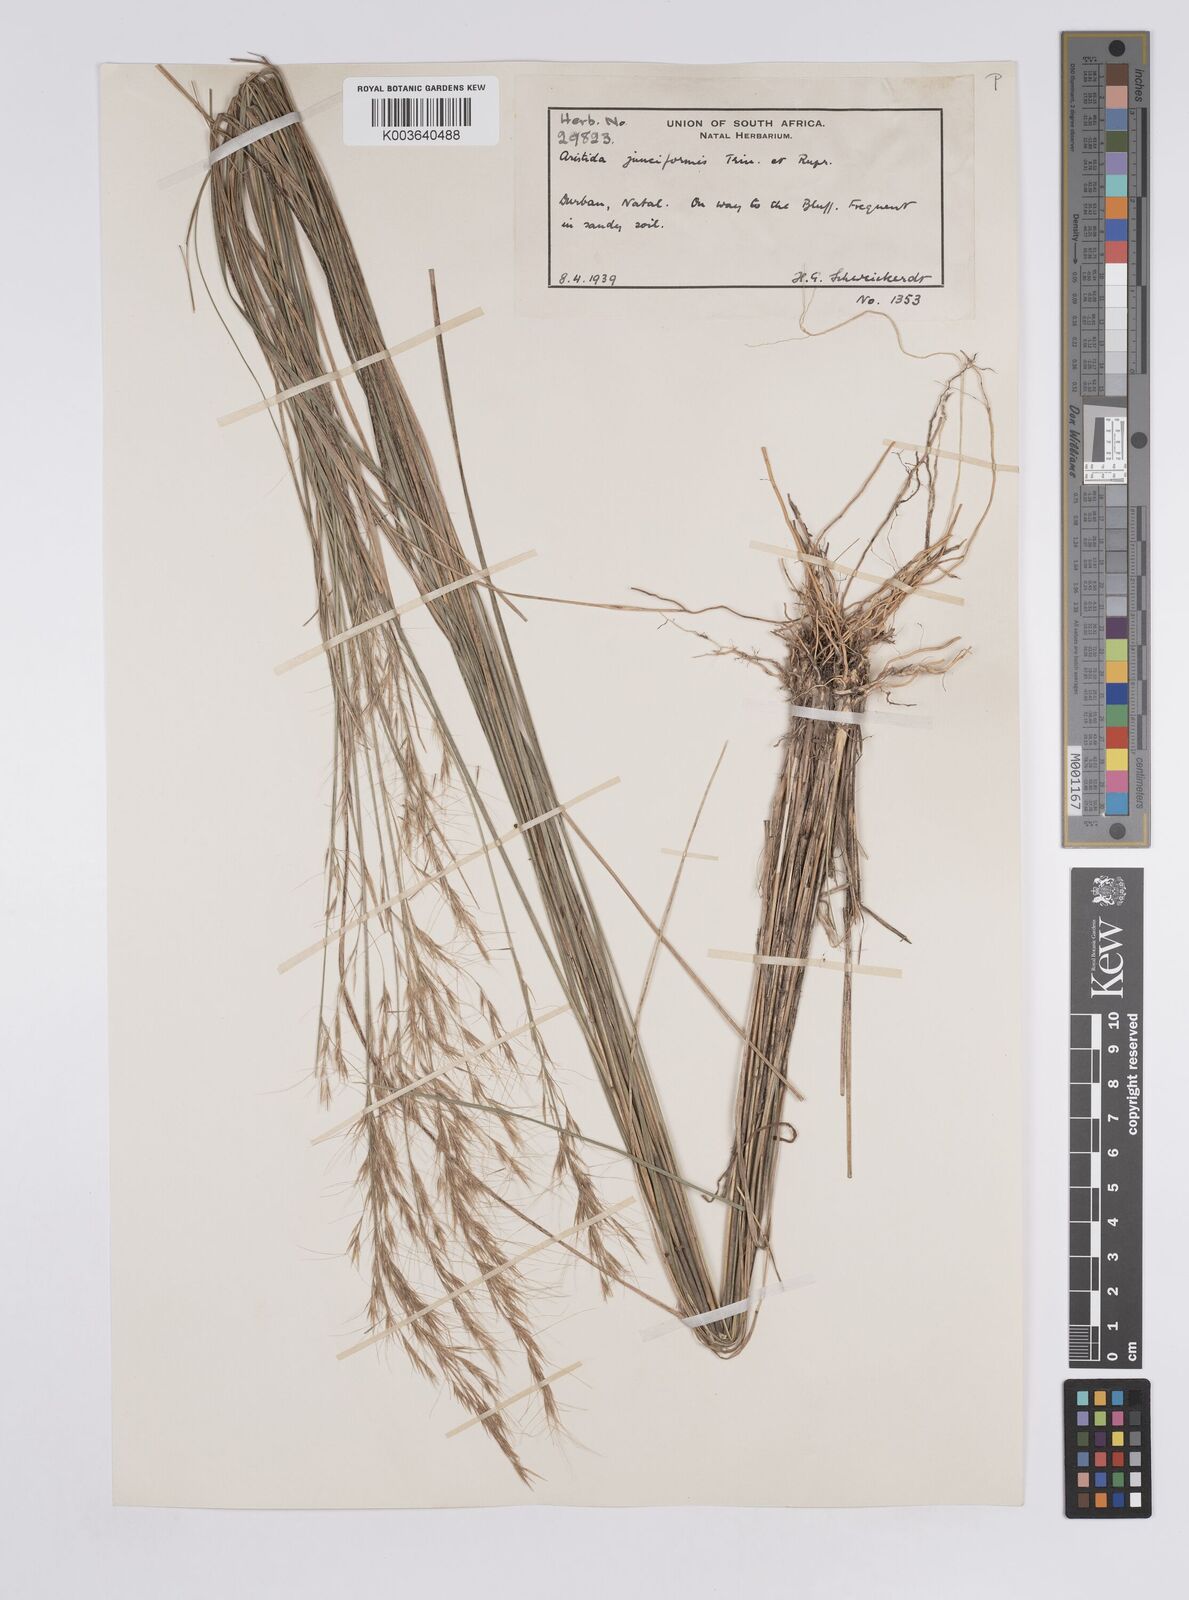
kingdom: Plantae
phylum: Tracheophyta
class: Liliopsida
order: Poales
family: Poaceae
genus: Aristida
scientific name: Aristida leucophaea
